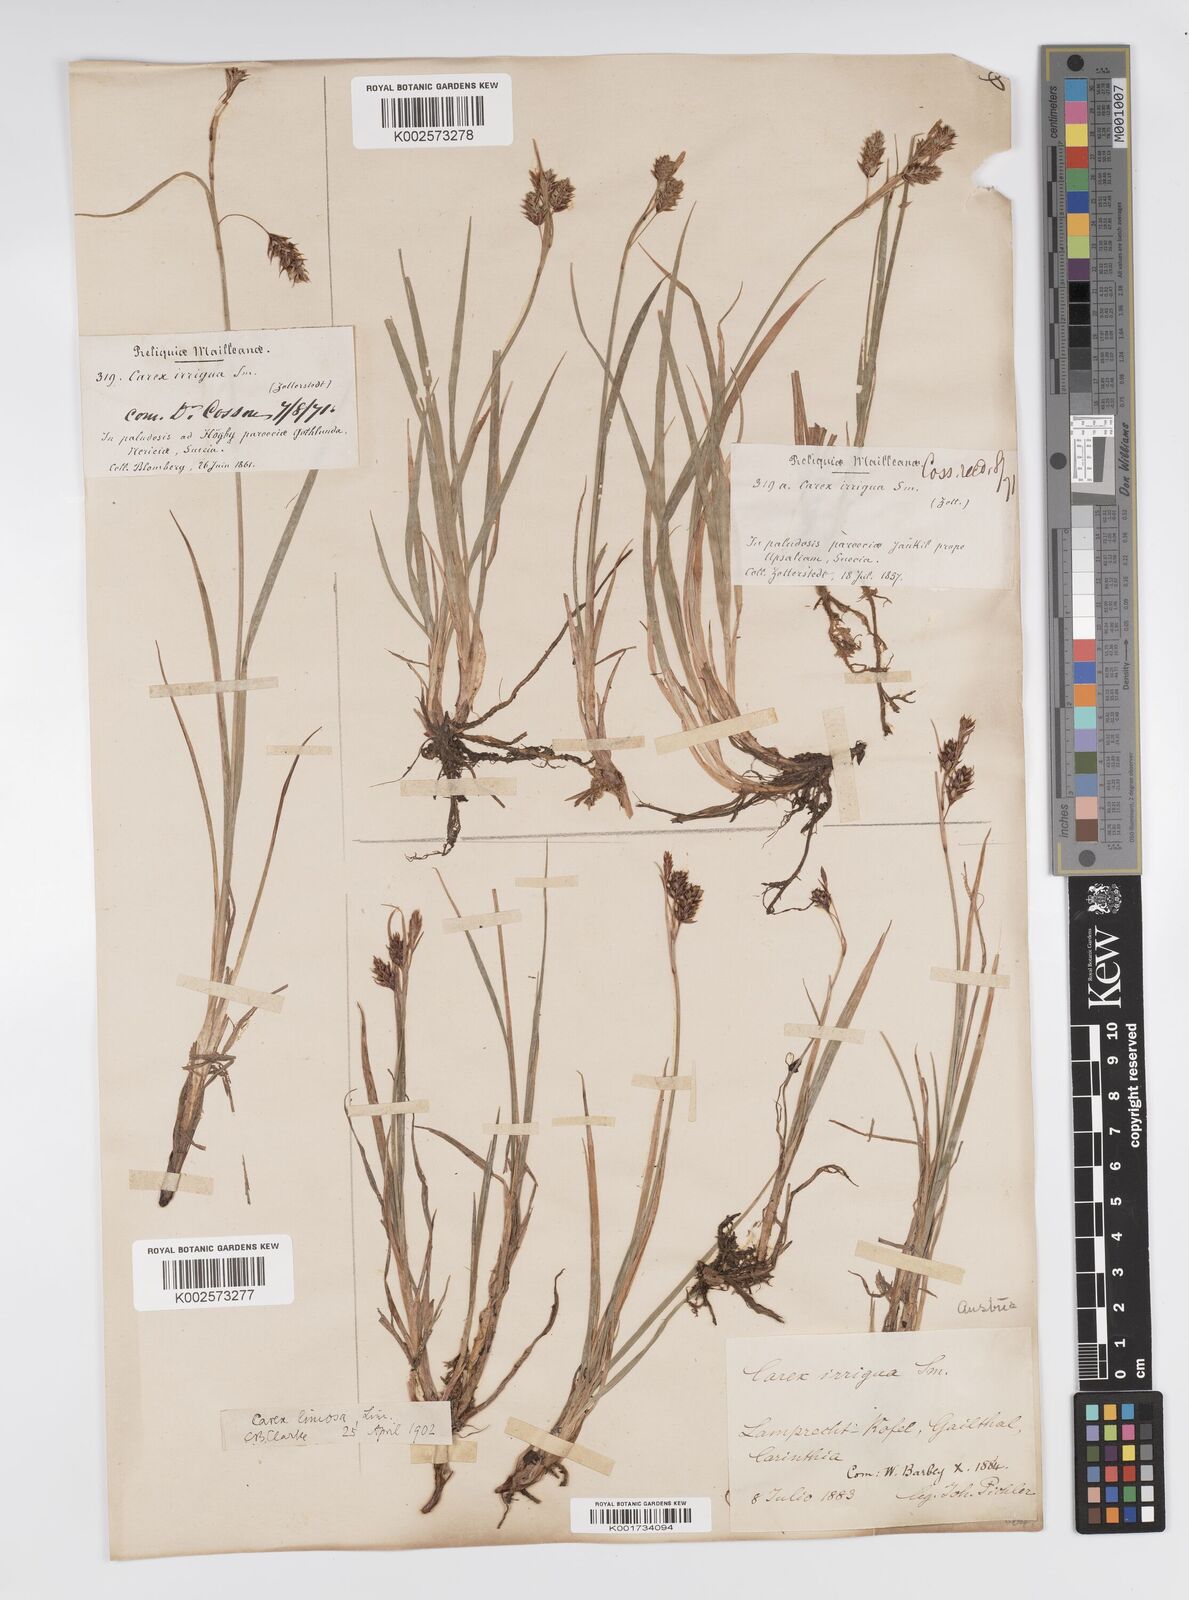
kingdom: Plantae
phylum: Tracheophyta
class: Liliopsida
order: Poales
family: Cyperaceae
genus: Carex
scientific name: Carex magellanica
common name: Bog sedge
